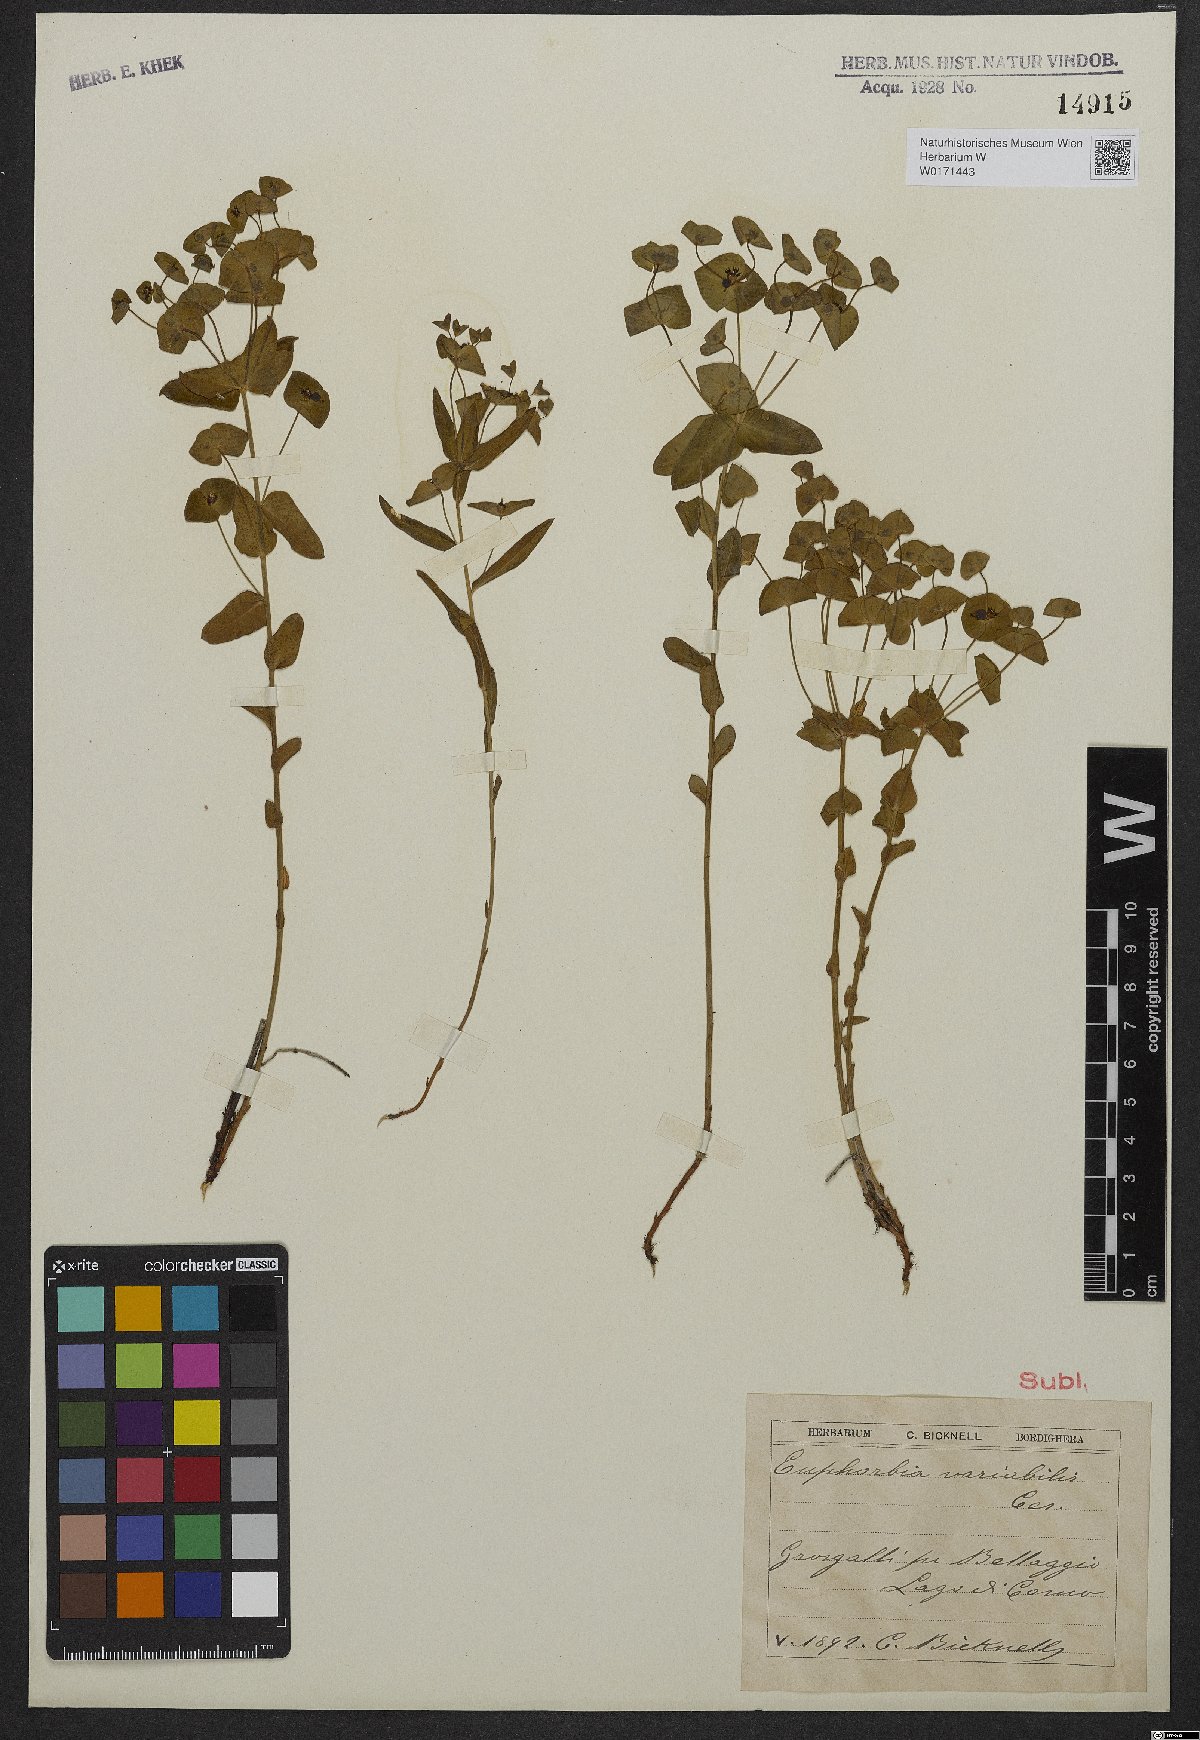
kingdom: Plantae
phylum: Tracheophyta
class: Magnoliopsida
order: Malpighiales
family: Euphorbiaceae
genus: Euphorbia
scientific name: Euphorbia variabilis
